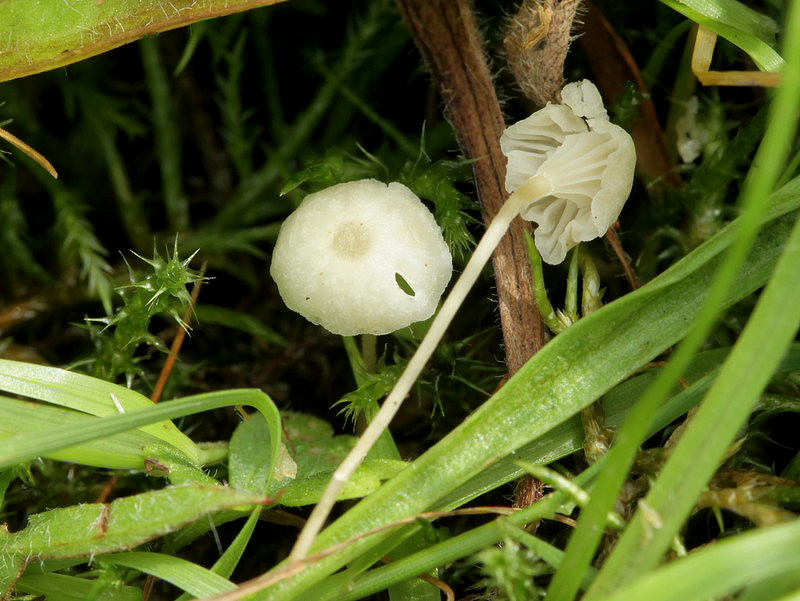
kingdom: Fungi
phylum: Basidiomycota
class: Agaricomycetes
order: Hymenochaetales
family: Rickenellaceae
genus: Rickenella
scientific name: Rickenella fibula
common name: orange mosnavlehat
